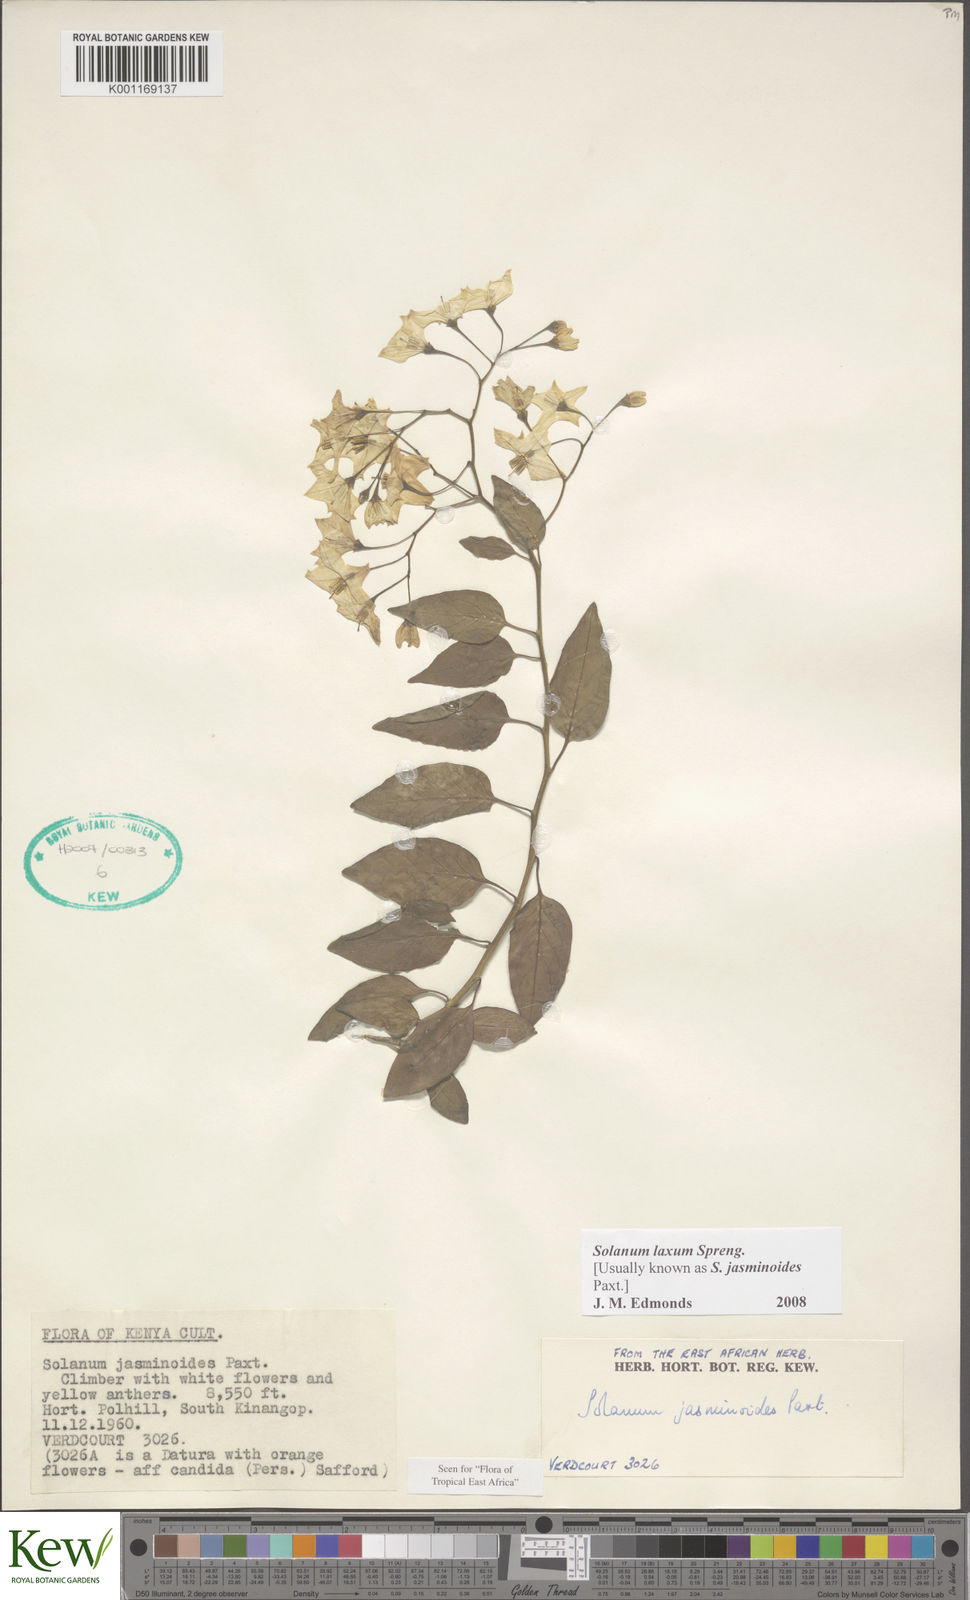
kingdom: Plantae
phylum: Tracheophyta
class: Magnoliopsida
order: Solanales
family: Solanaceae
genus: Solanum
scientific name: Solanum laxum
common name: Nightshade
